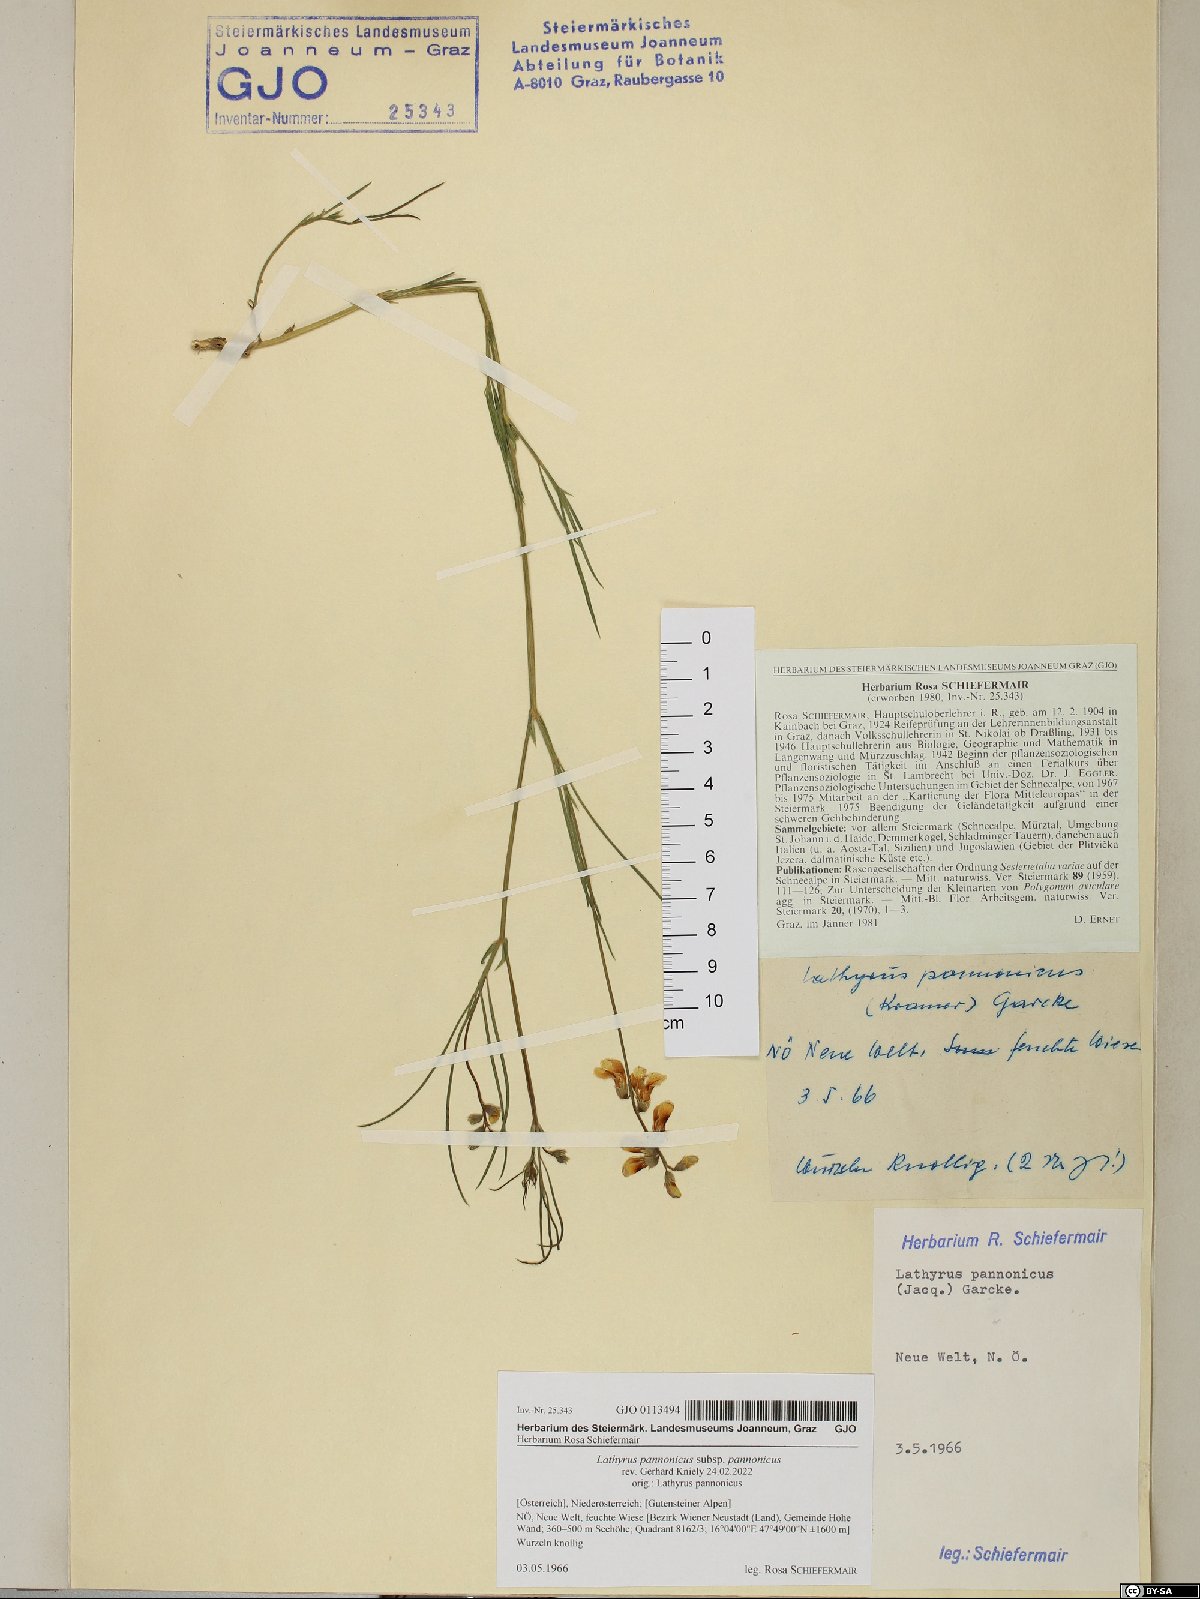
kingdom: Plantae
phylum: Tracheophyta
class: Magnoliopsida
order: Fabales
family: Fabaceae
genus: Lathyrus
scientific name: Lathyrus pannonicus
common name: Pea
